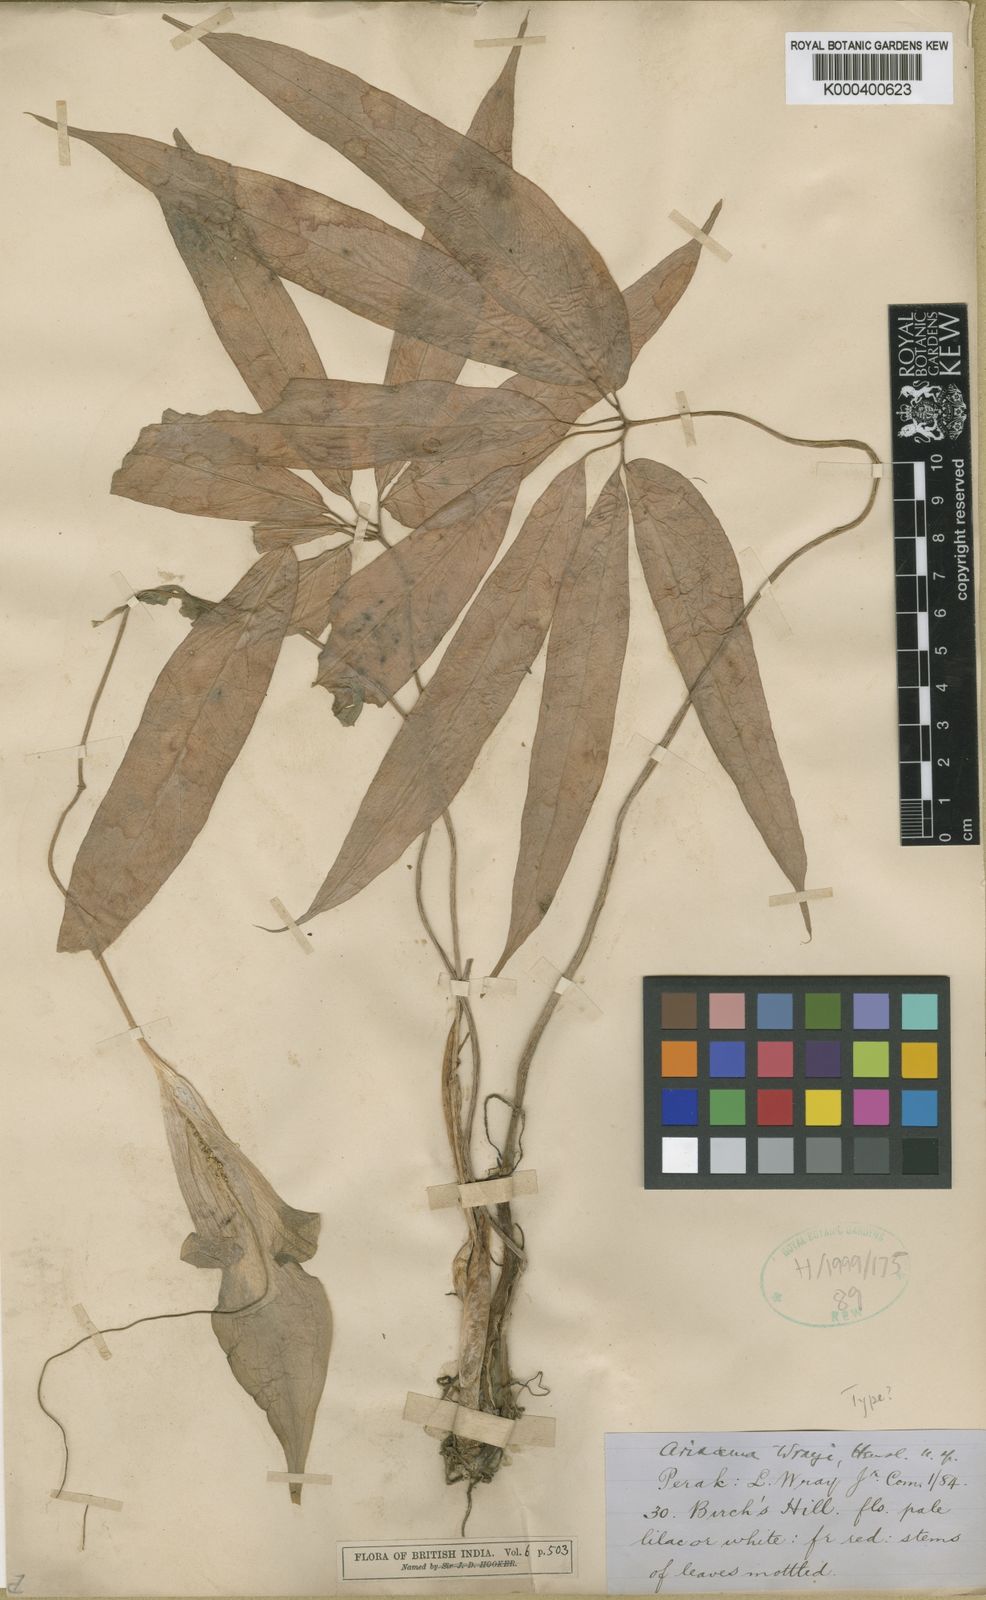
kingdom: Plantae
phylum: Tracheophyta
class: Liliopsida
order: Alismatales
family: Araceae
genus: Arisaema
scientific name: Arisaema wrayi
